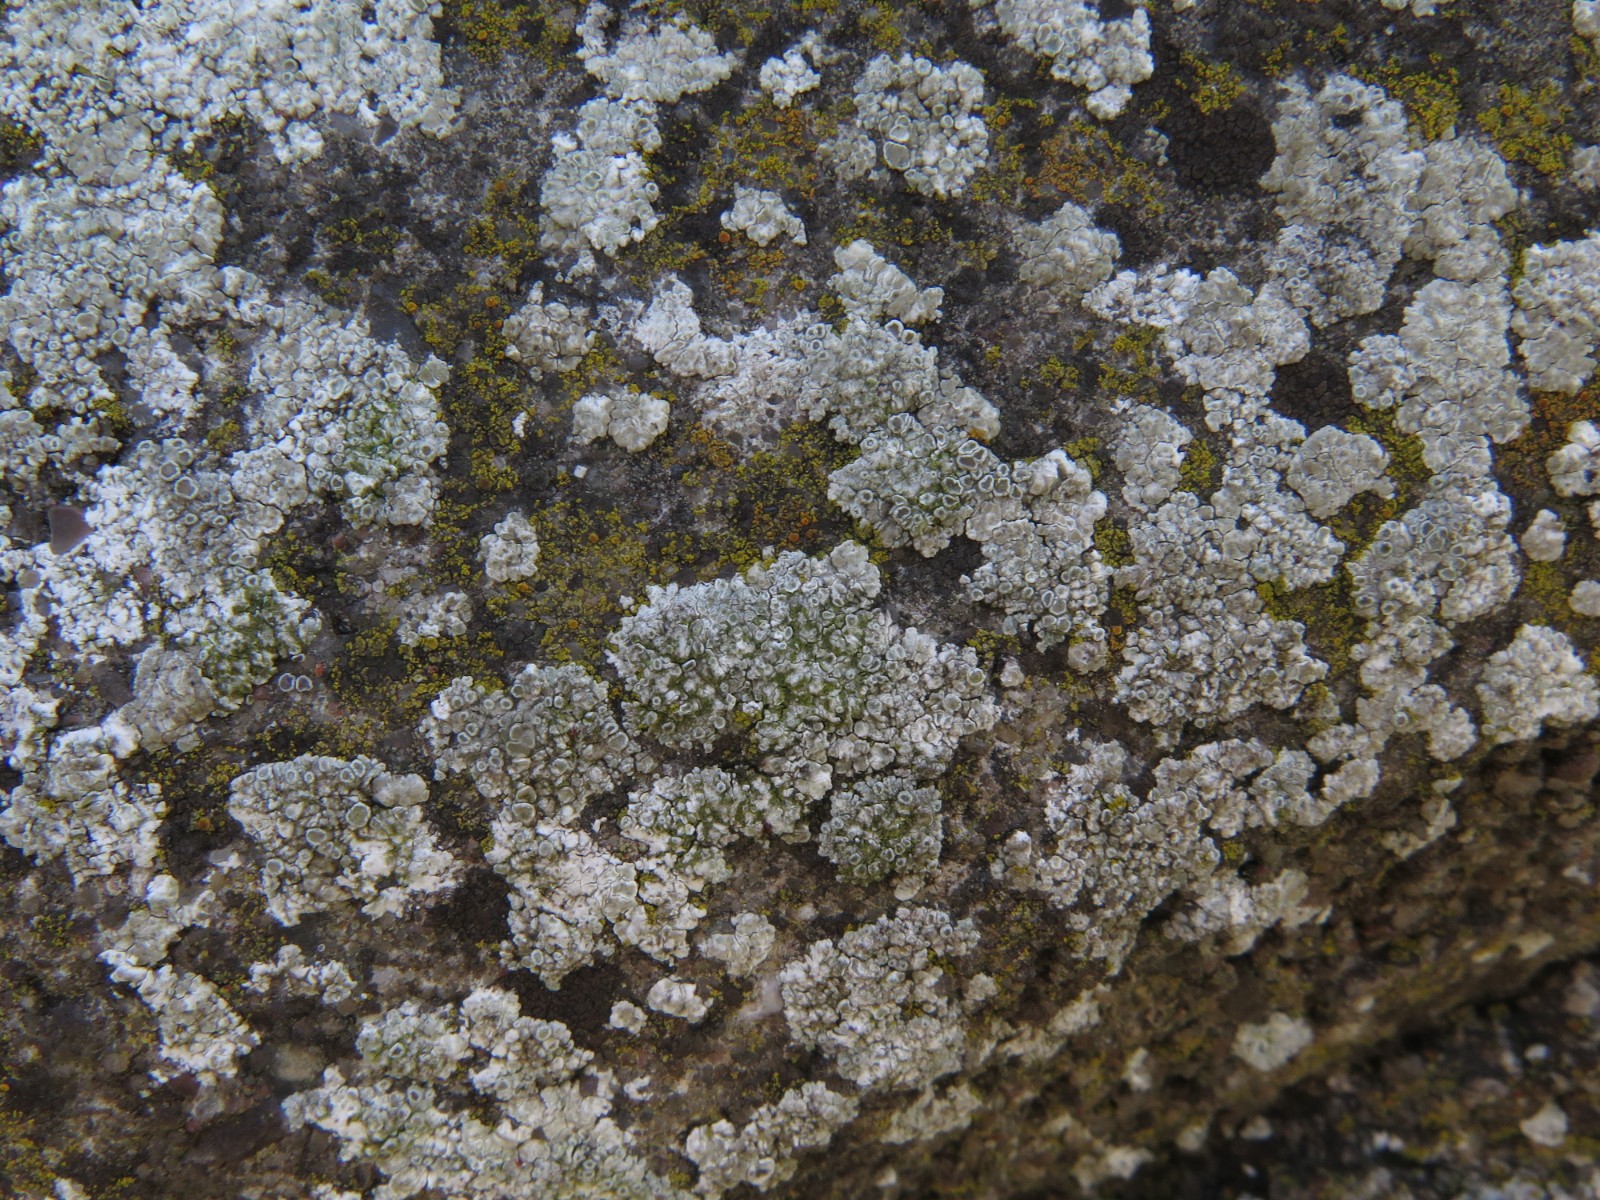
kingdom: Fungi
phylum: Ascomycota
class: Lecanoromycetes
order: Lecanorales
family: Lecanoraceae
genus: Polyozosia
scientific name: Polyozosia albescens
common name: cement-kantskivelav
